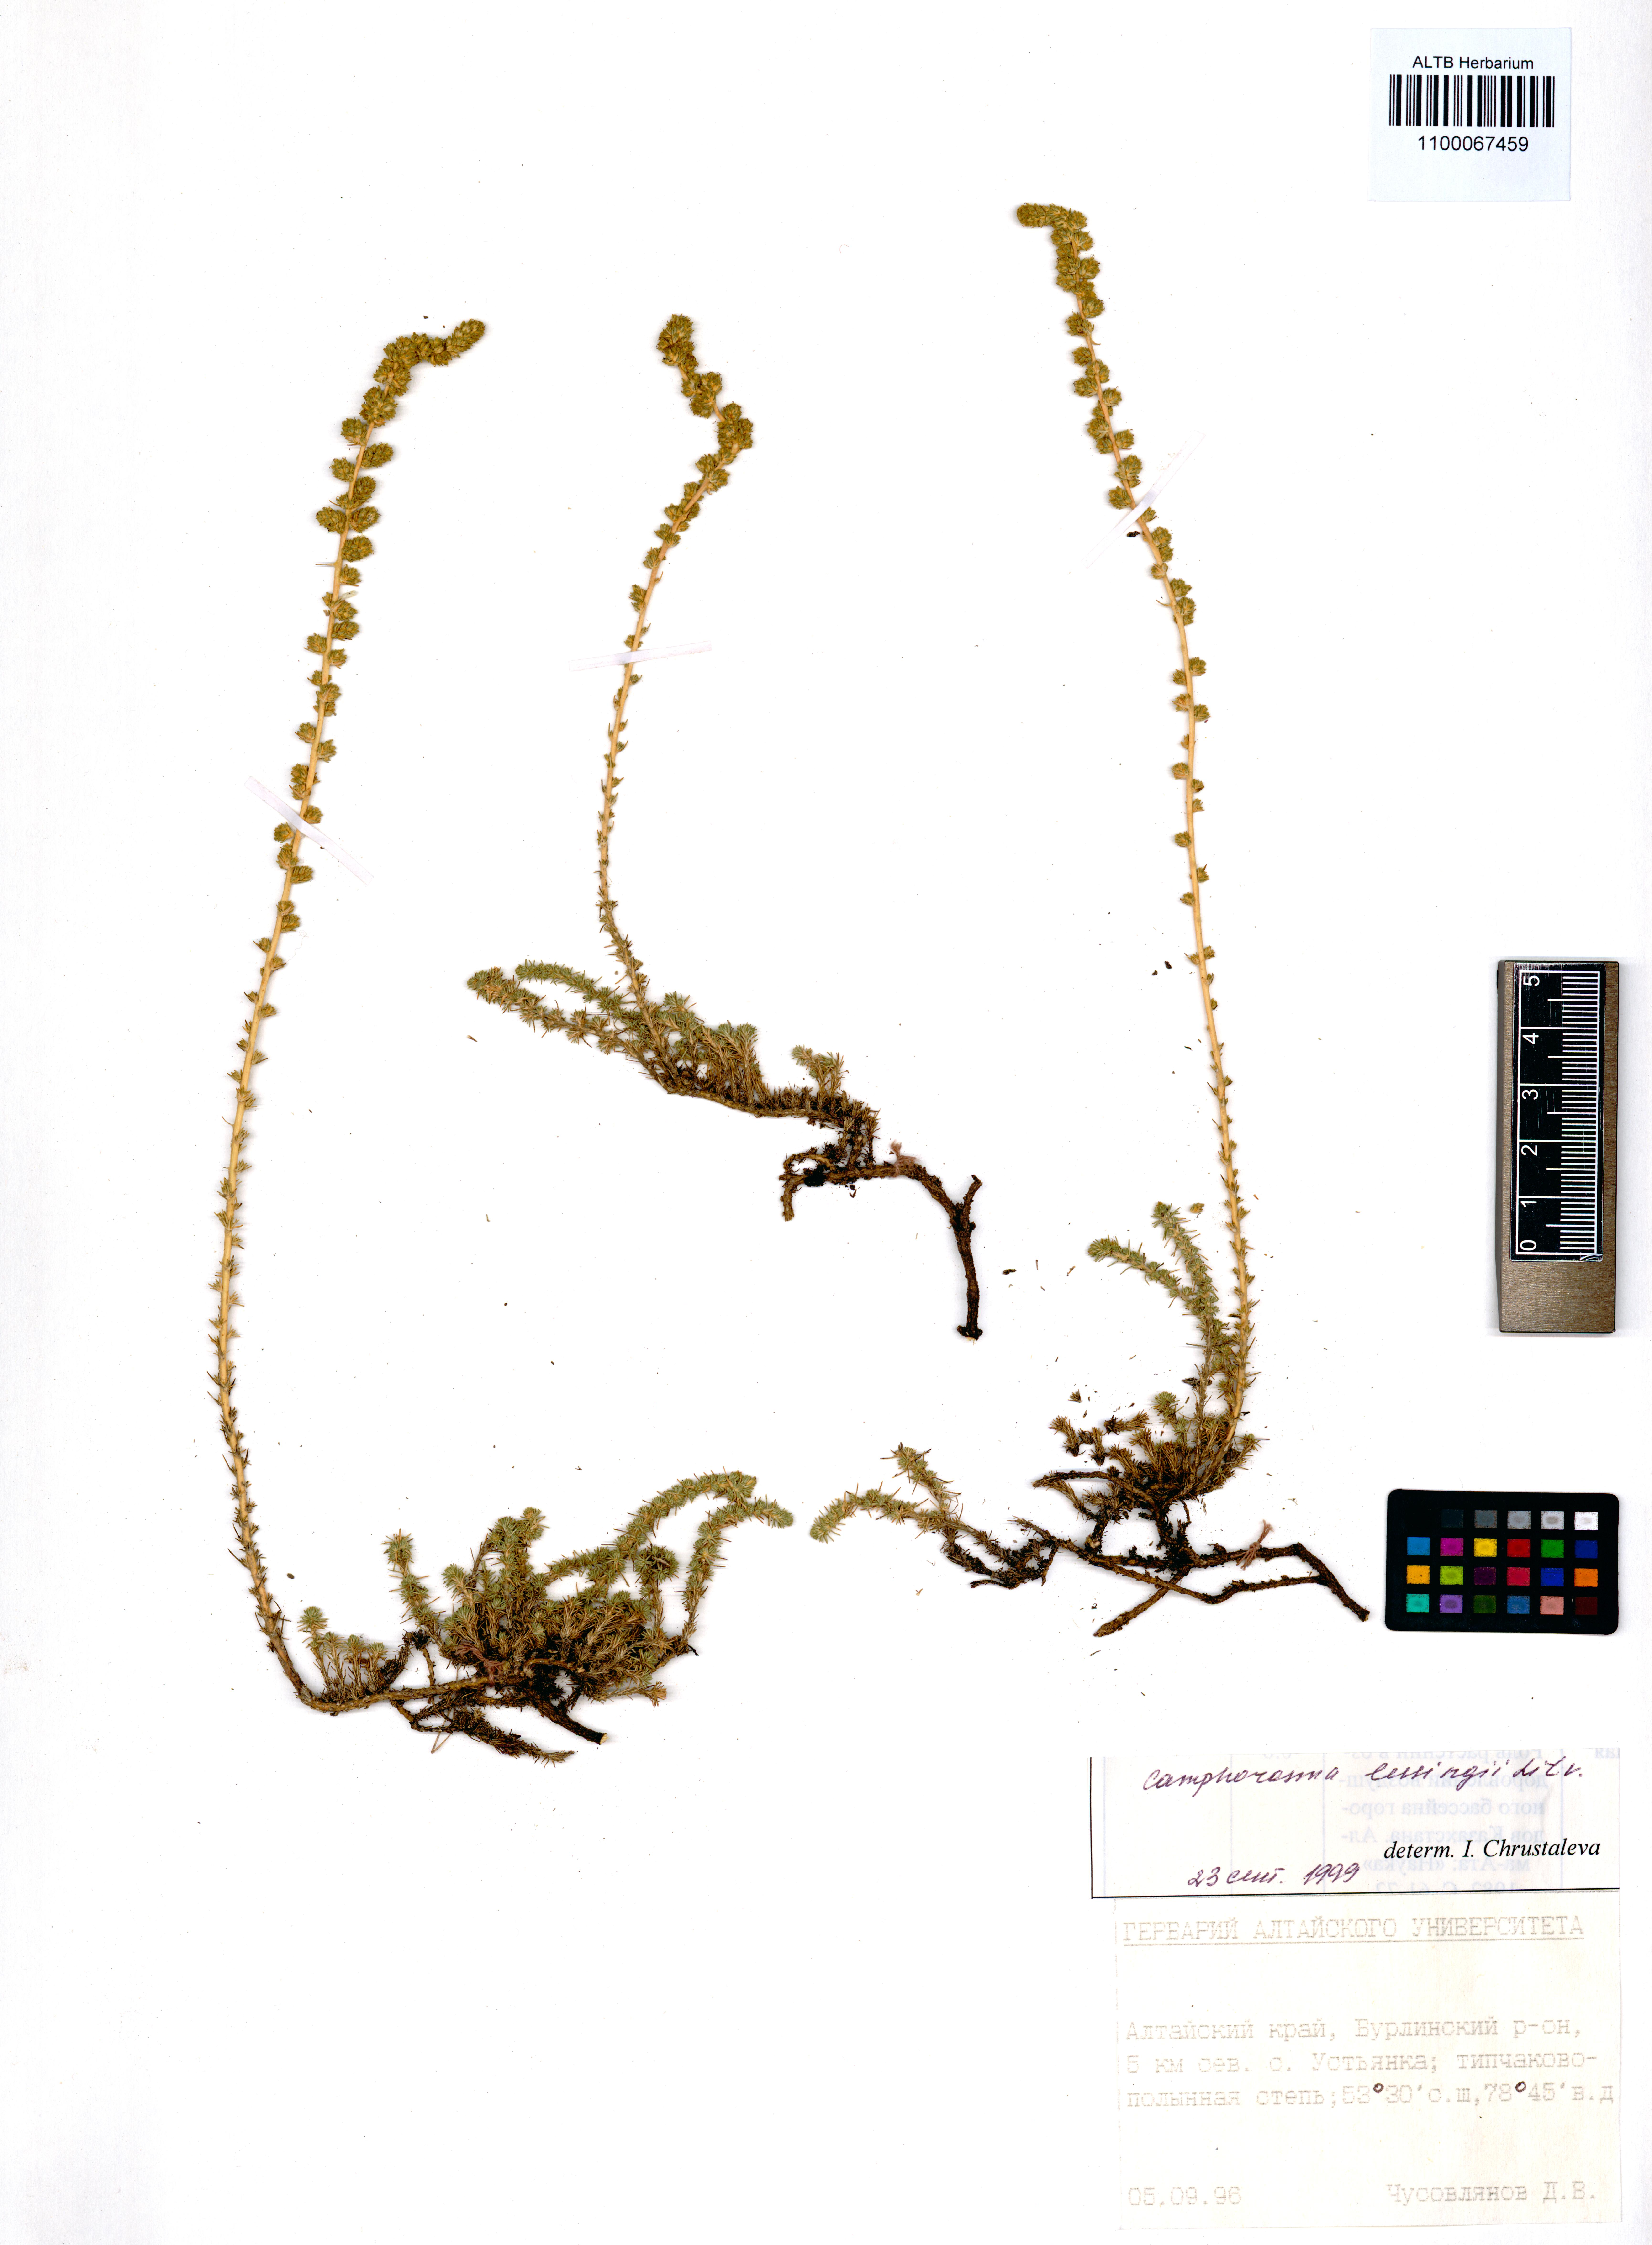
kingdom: Plantae
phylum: Tracheophyta
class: Magnoliopsida
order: Caryophyllales
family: Amaranthaceae
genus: Camphorosma
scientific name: Camphorosma monspeliaca
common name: Camphorfume
